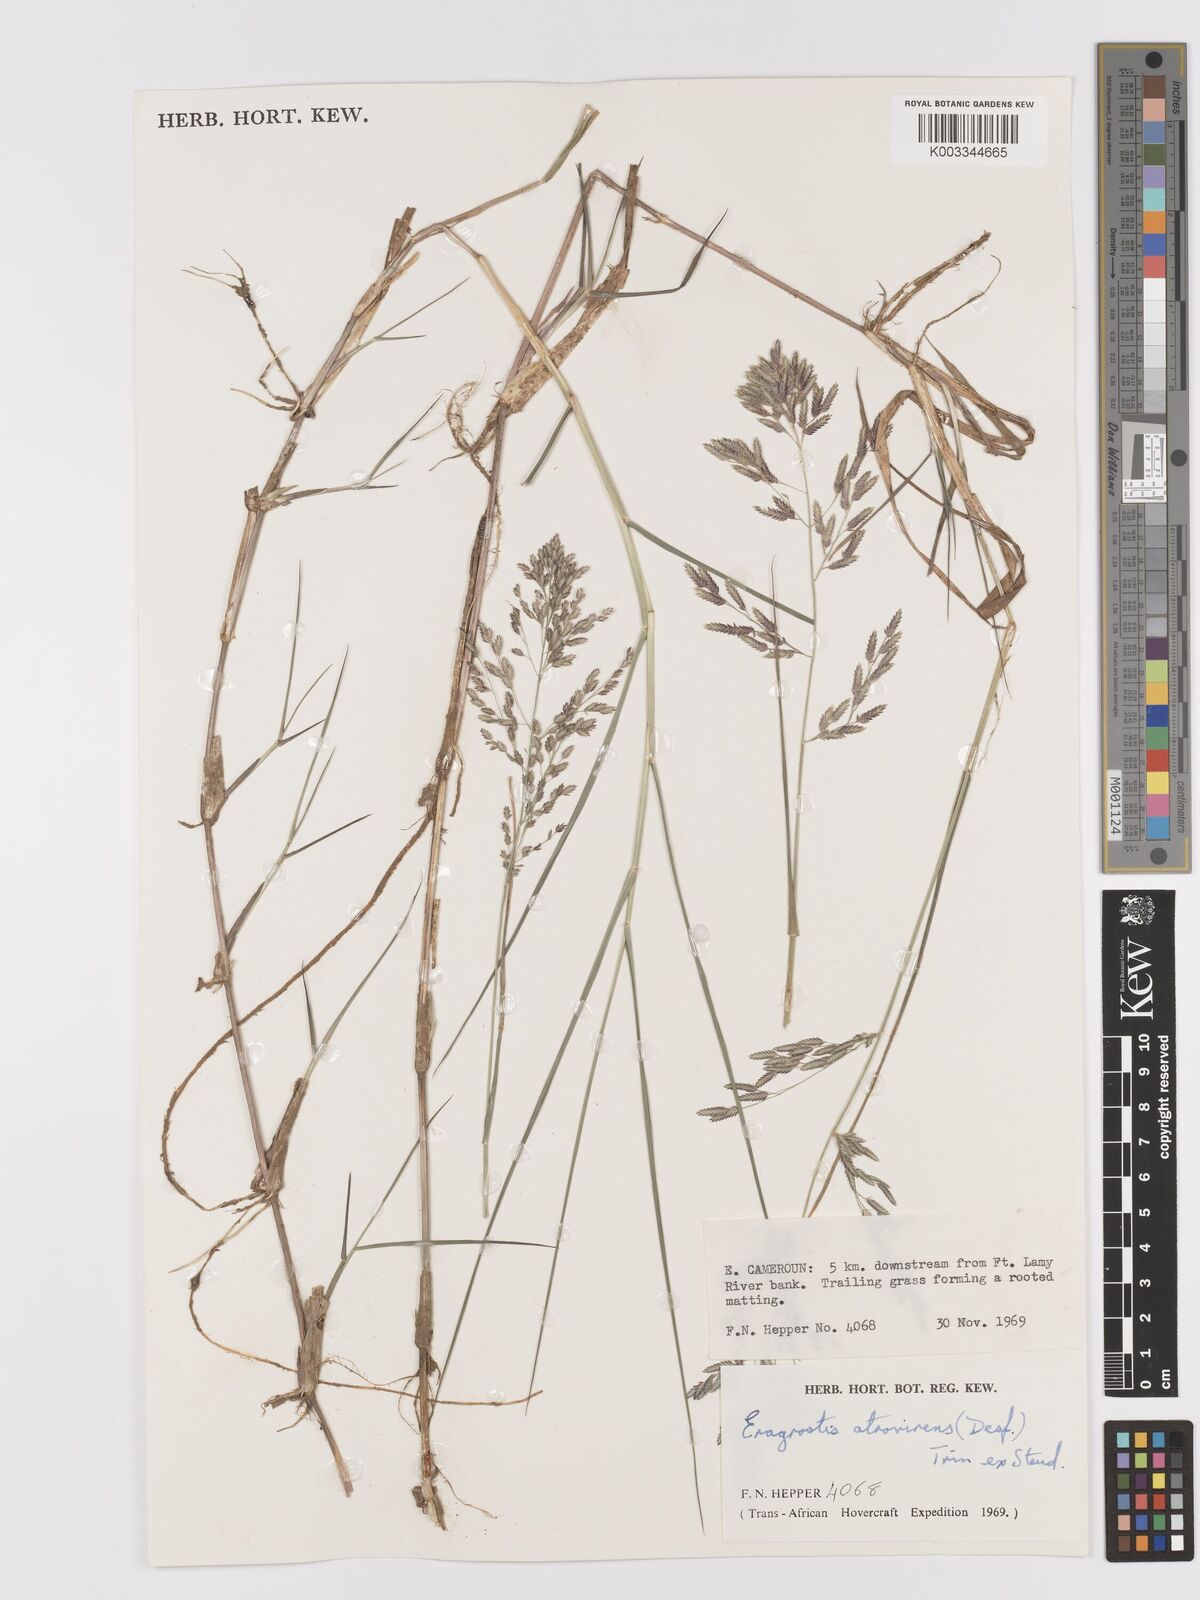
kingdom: Plantae
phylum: Tracheophyta
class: Liliopsida
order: Poales
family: Poaceae
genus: Eragrostis
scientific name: Eragrostis atrovirens
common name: Thalia lovegrass
